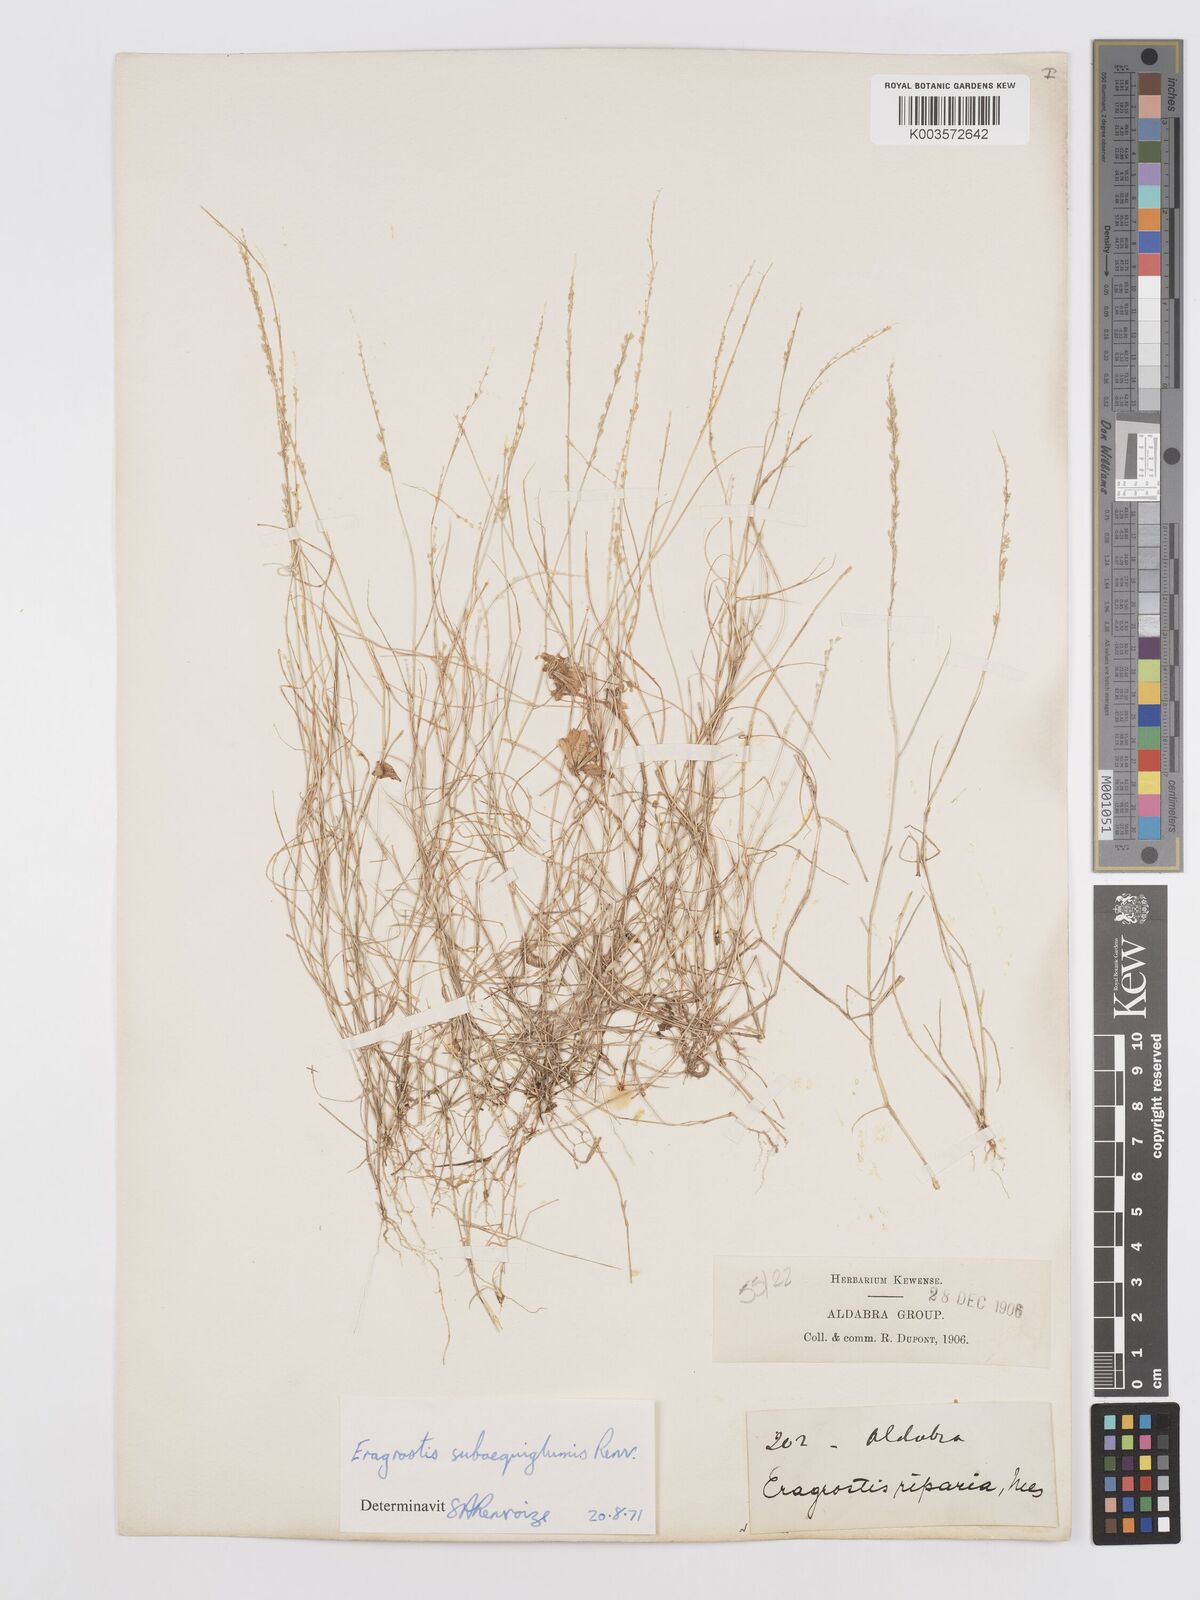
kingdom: Plantae
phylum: Tracheophyta
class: Liliopsida
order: Poales
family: Poaceae
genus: Eragrostis
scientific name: Eragrostis subaequiglumis
